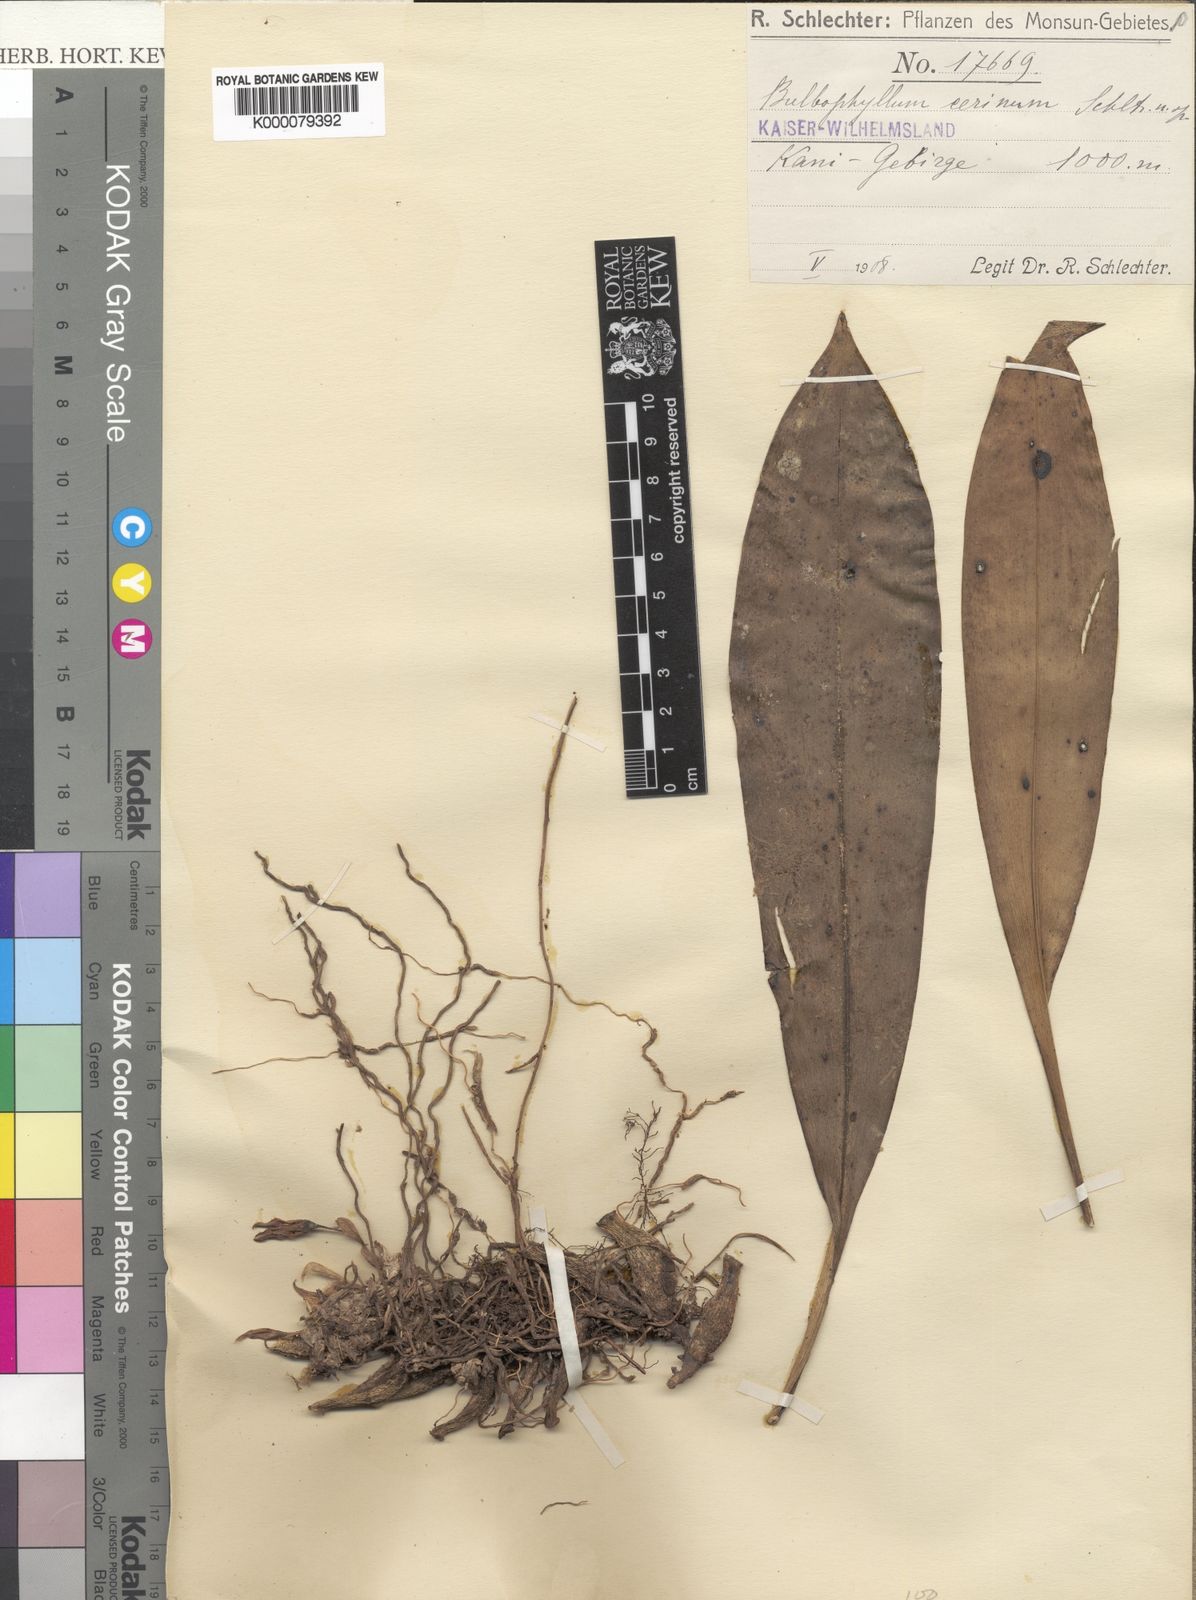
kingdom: Plantae
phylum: Tracheophyta
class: Liliopsida
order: Asparagales
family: Orchidaceae
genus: Bulbophyllum
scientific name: Bulbophyllum cerinum
